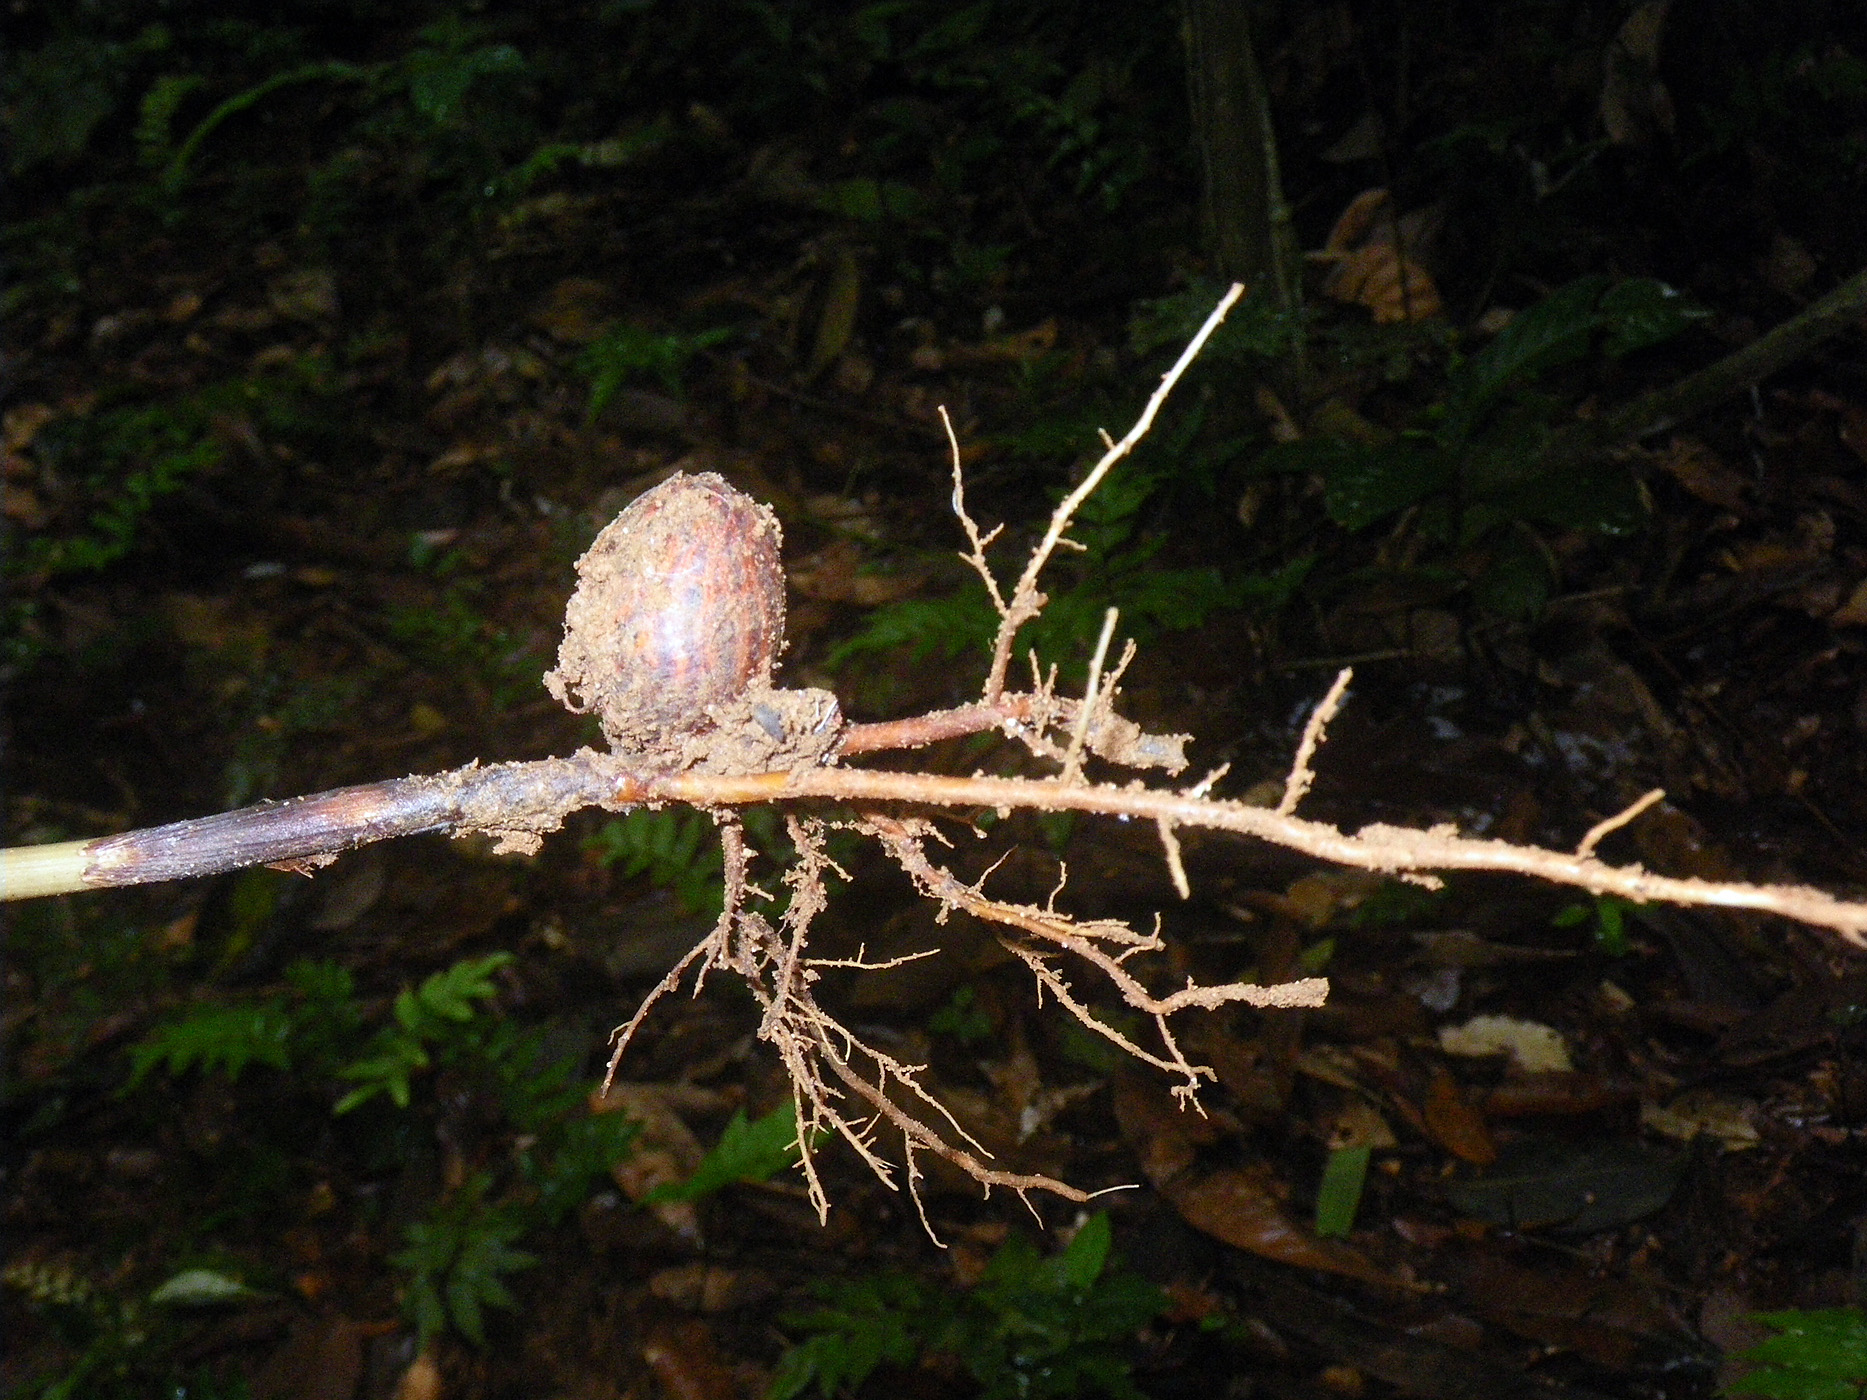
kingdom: Plantae
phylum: Tracheophyta
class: Liliopsida
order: Arecales
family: Arecaceae
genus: Socratea
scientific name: Socratea exorrhiza
